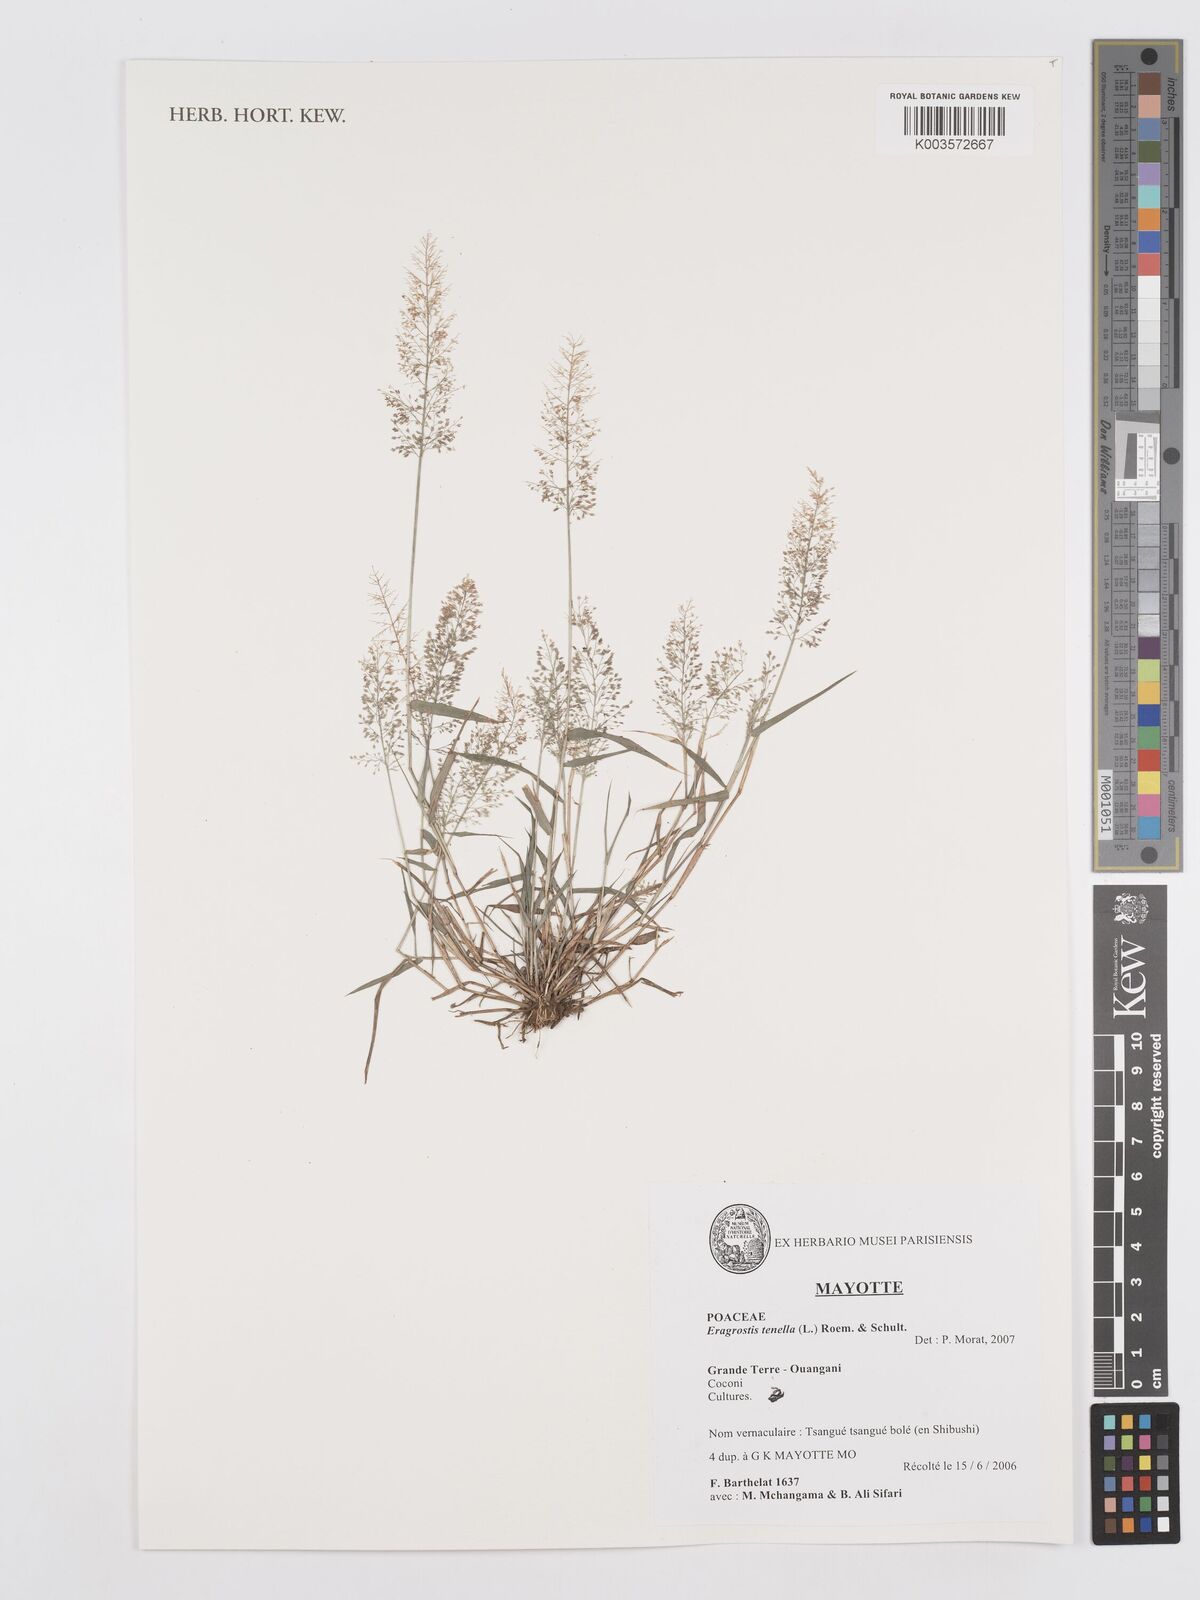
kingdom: Plantae
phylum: Tracheophyta
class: Liliopsida
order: Poales
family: Poaceae
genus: Eragrostis
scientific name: Eragrostis tenella
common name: Japanese lovegrass
